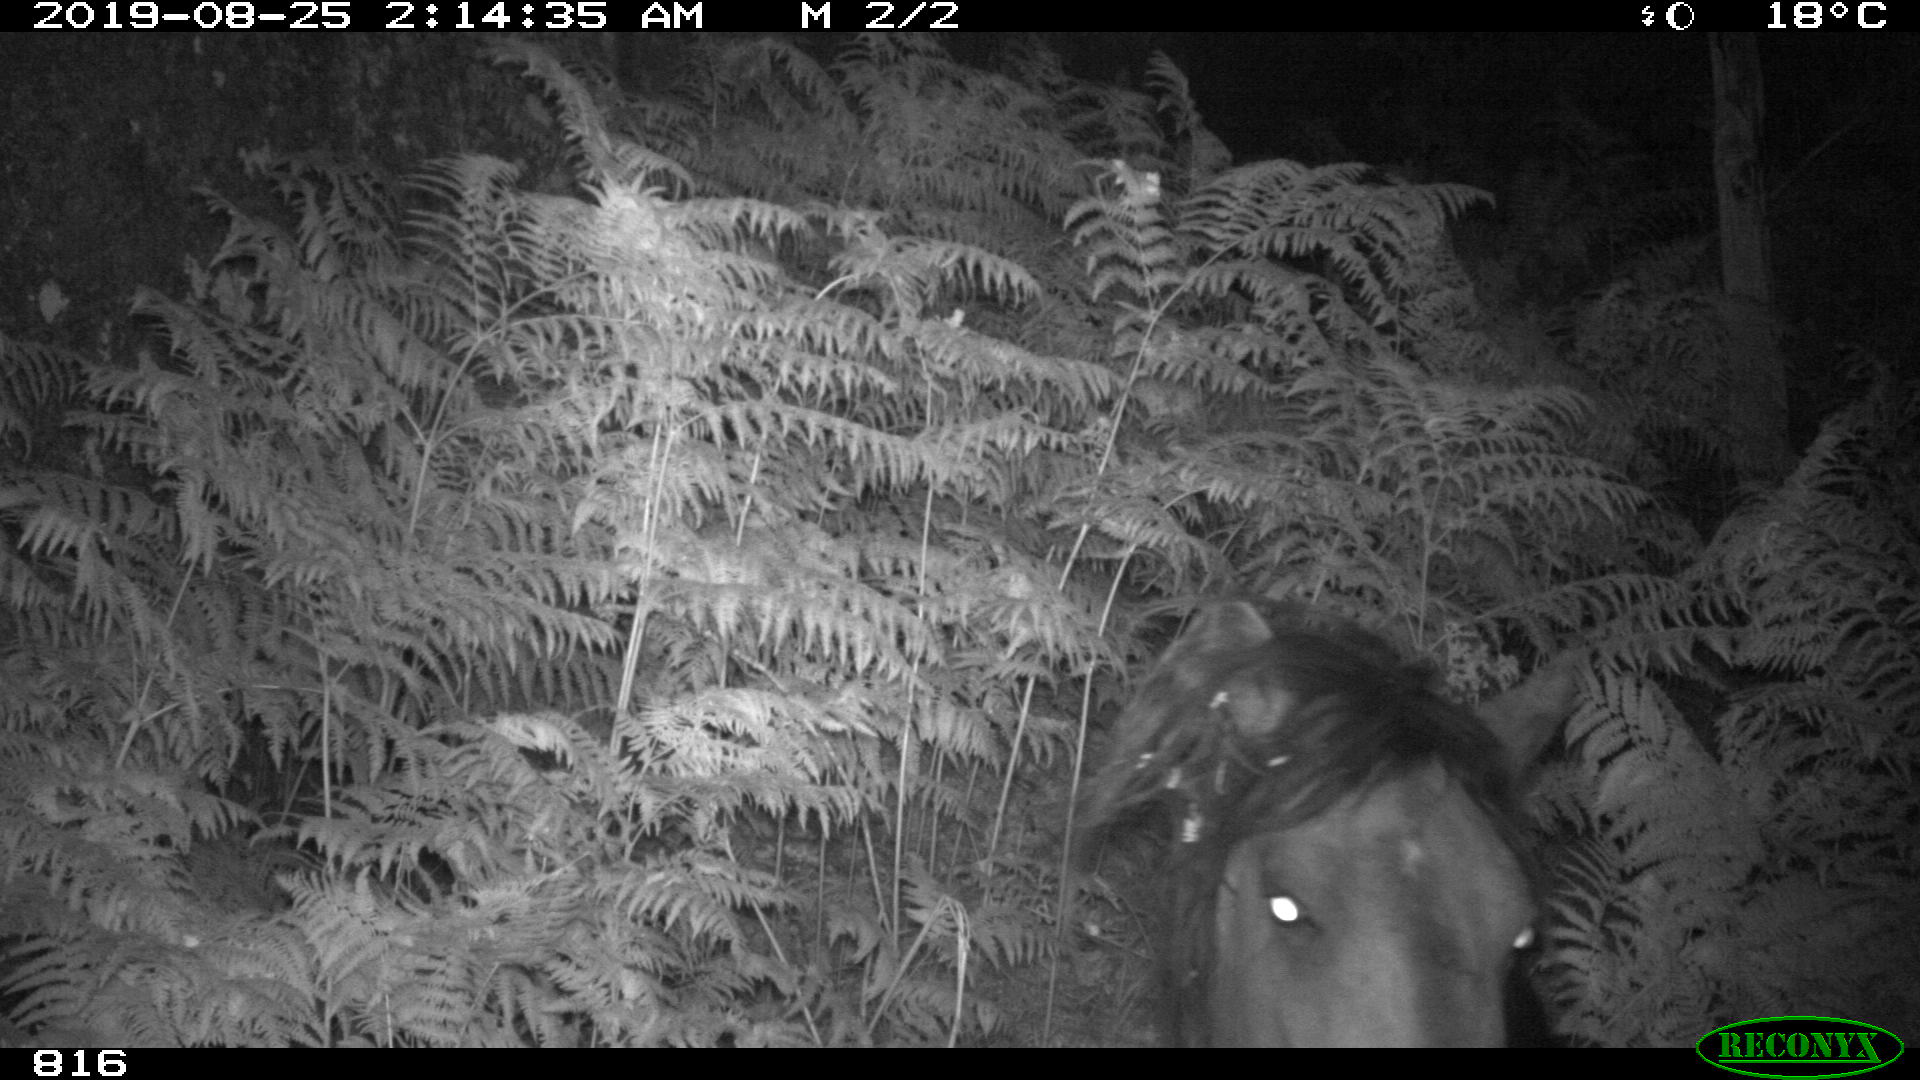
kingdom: Animalia
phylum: Chordata
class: Mammalia
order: Perissodactyla
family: Equidae
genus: Equus
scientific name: Equus caballus
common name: Horse
